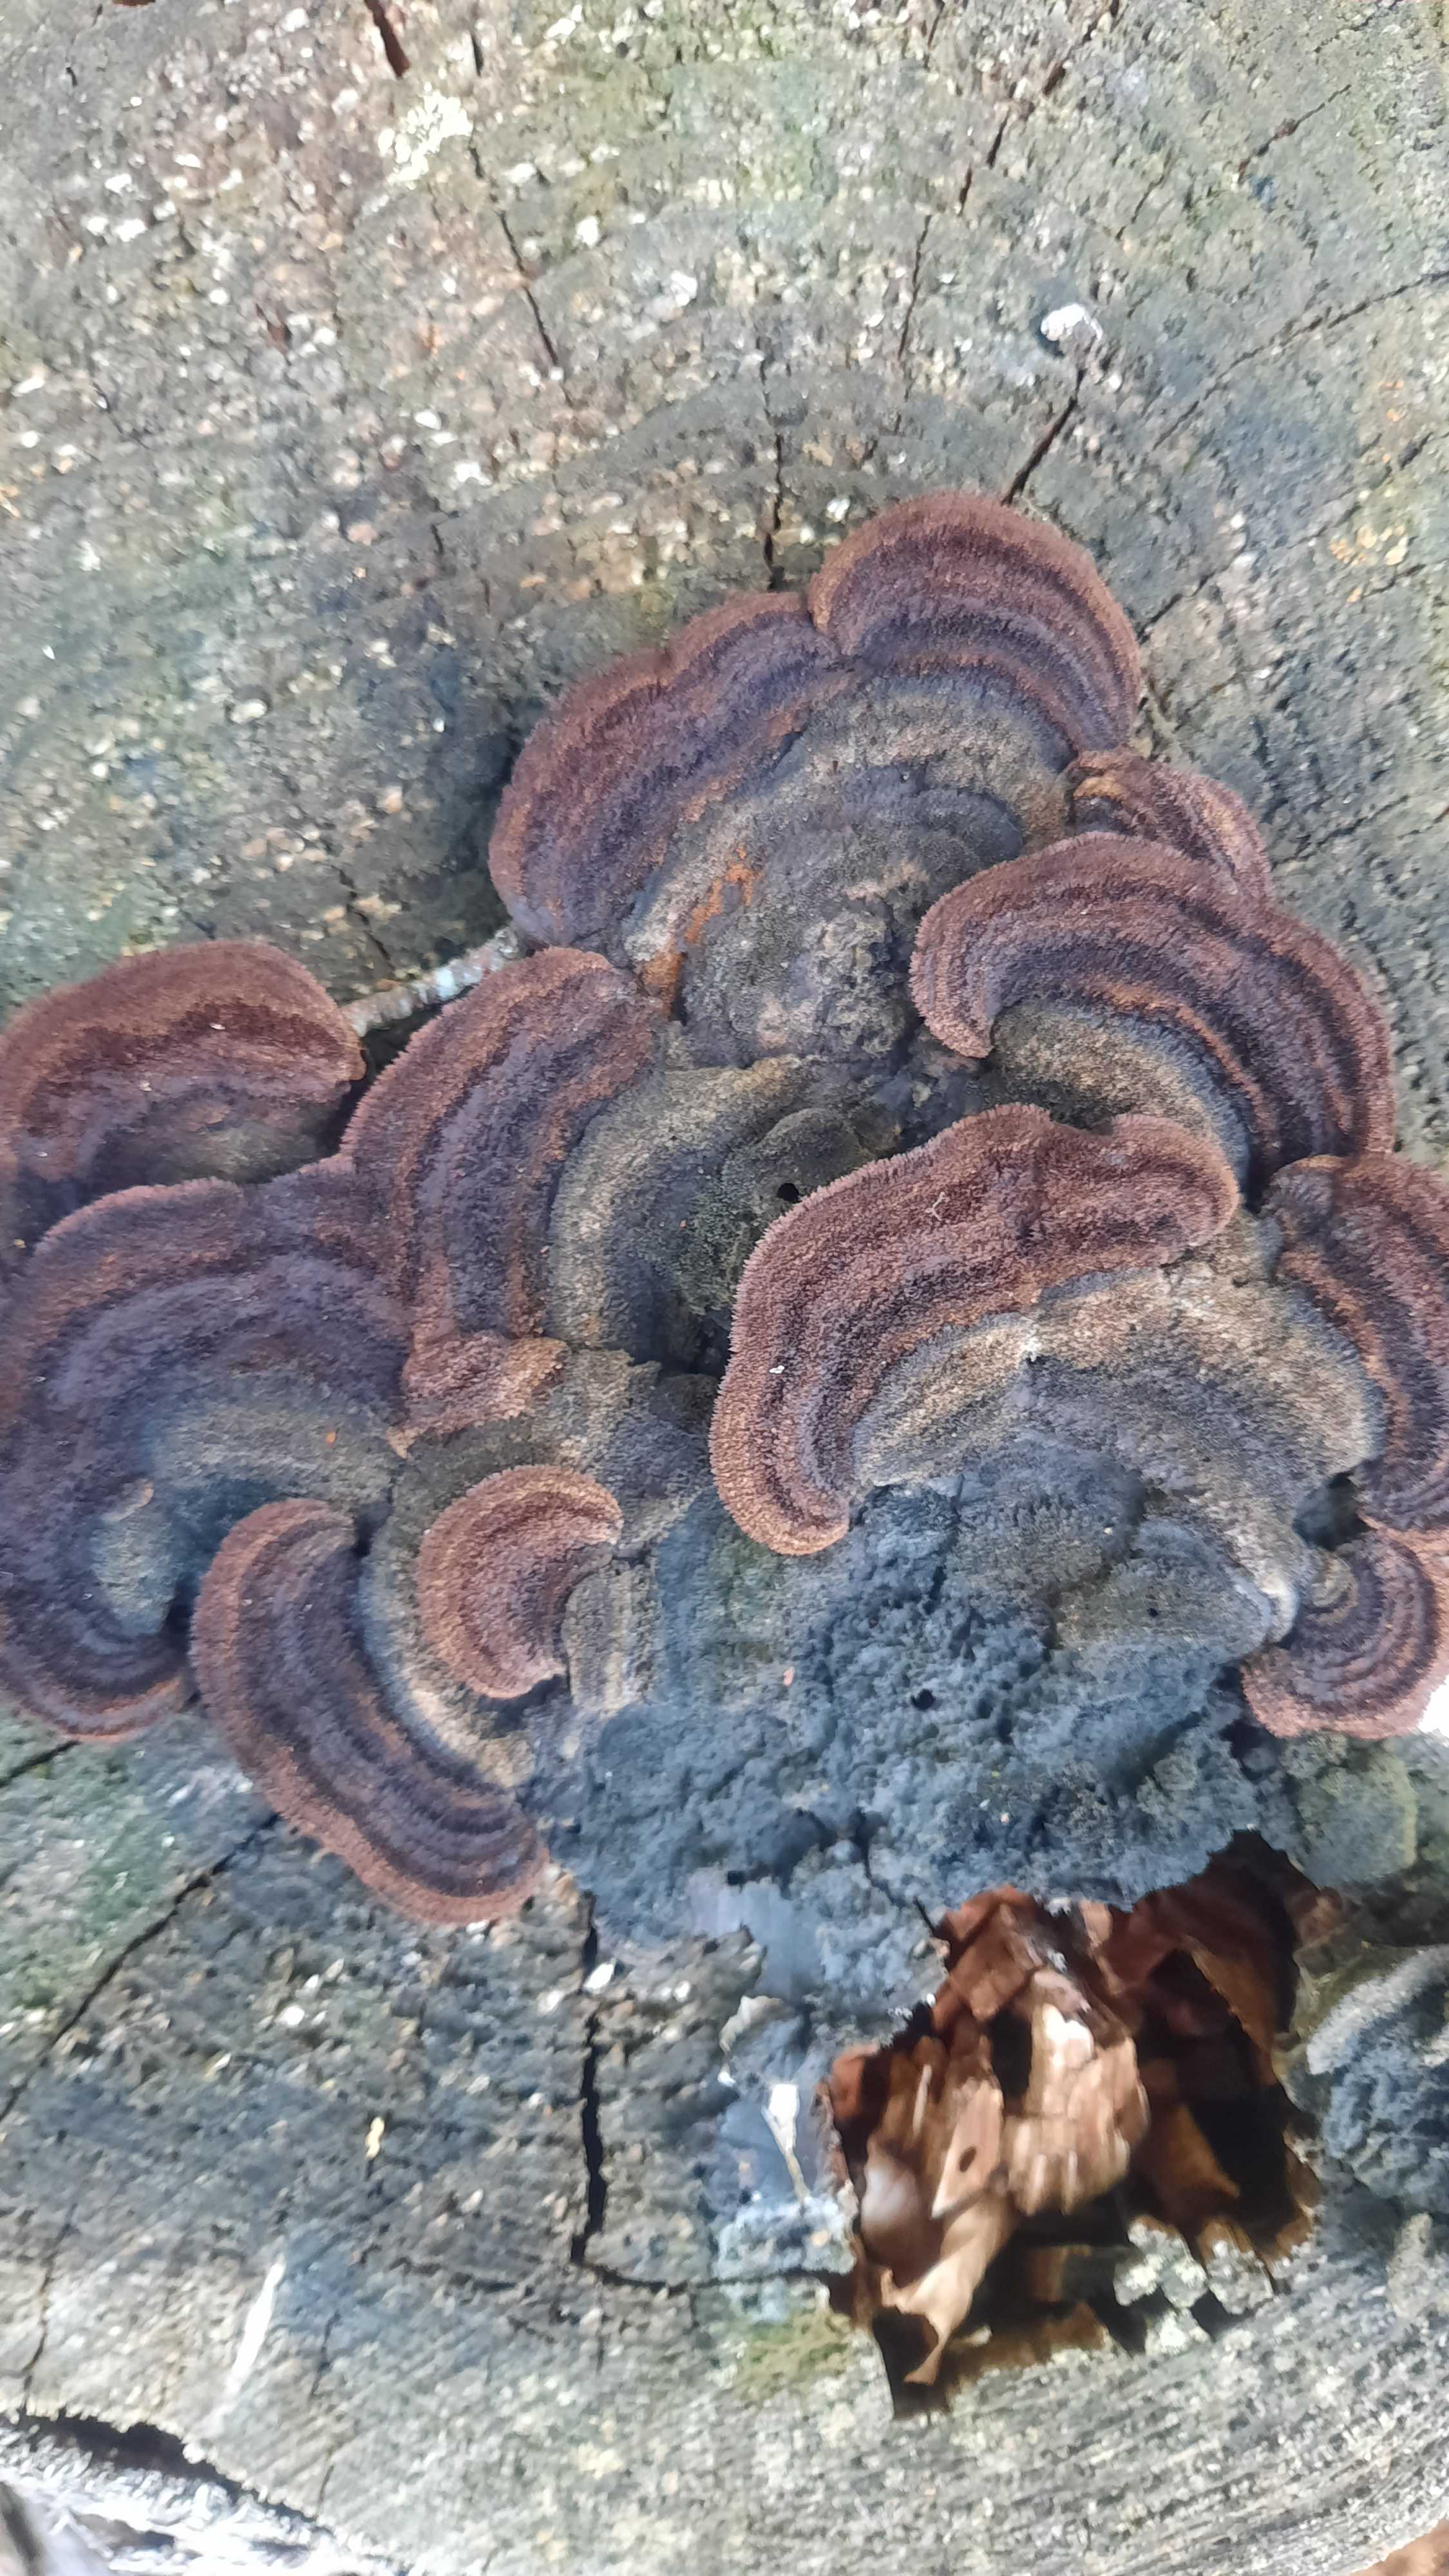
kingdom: Fungi
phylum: Basidiomycota
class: Agaricomycetes
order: Gloeophyllales
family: Gloeophyllaceae
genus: Gloeophyllum
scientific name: Gloeophyllum sepiarium
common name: fyrre-korkhat
